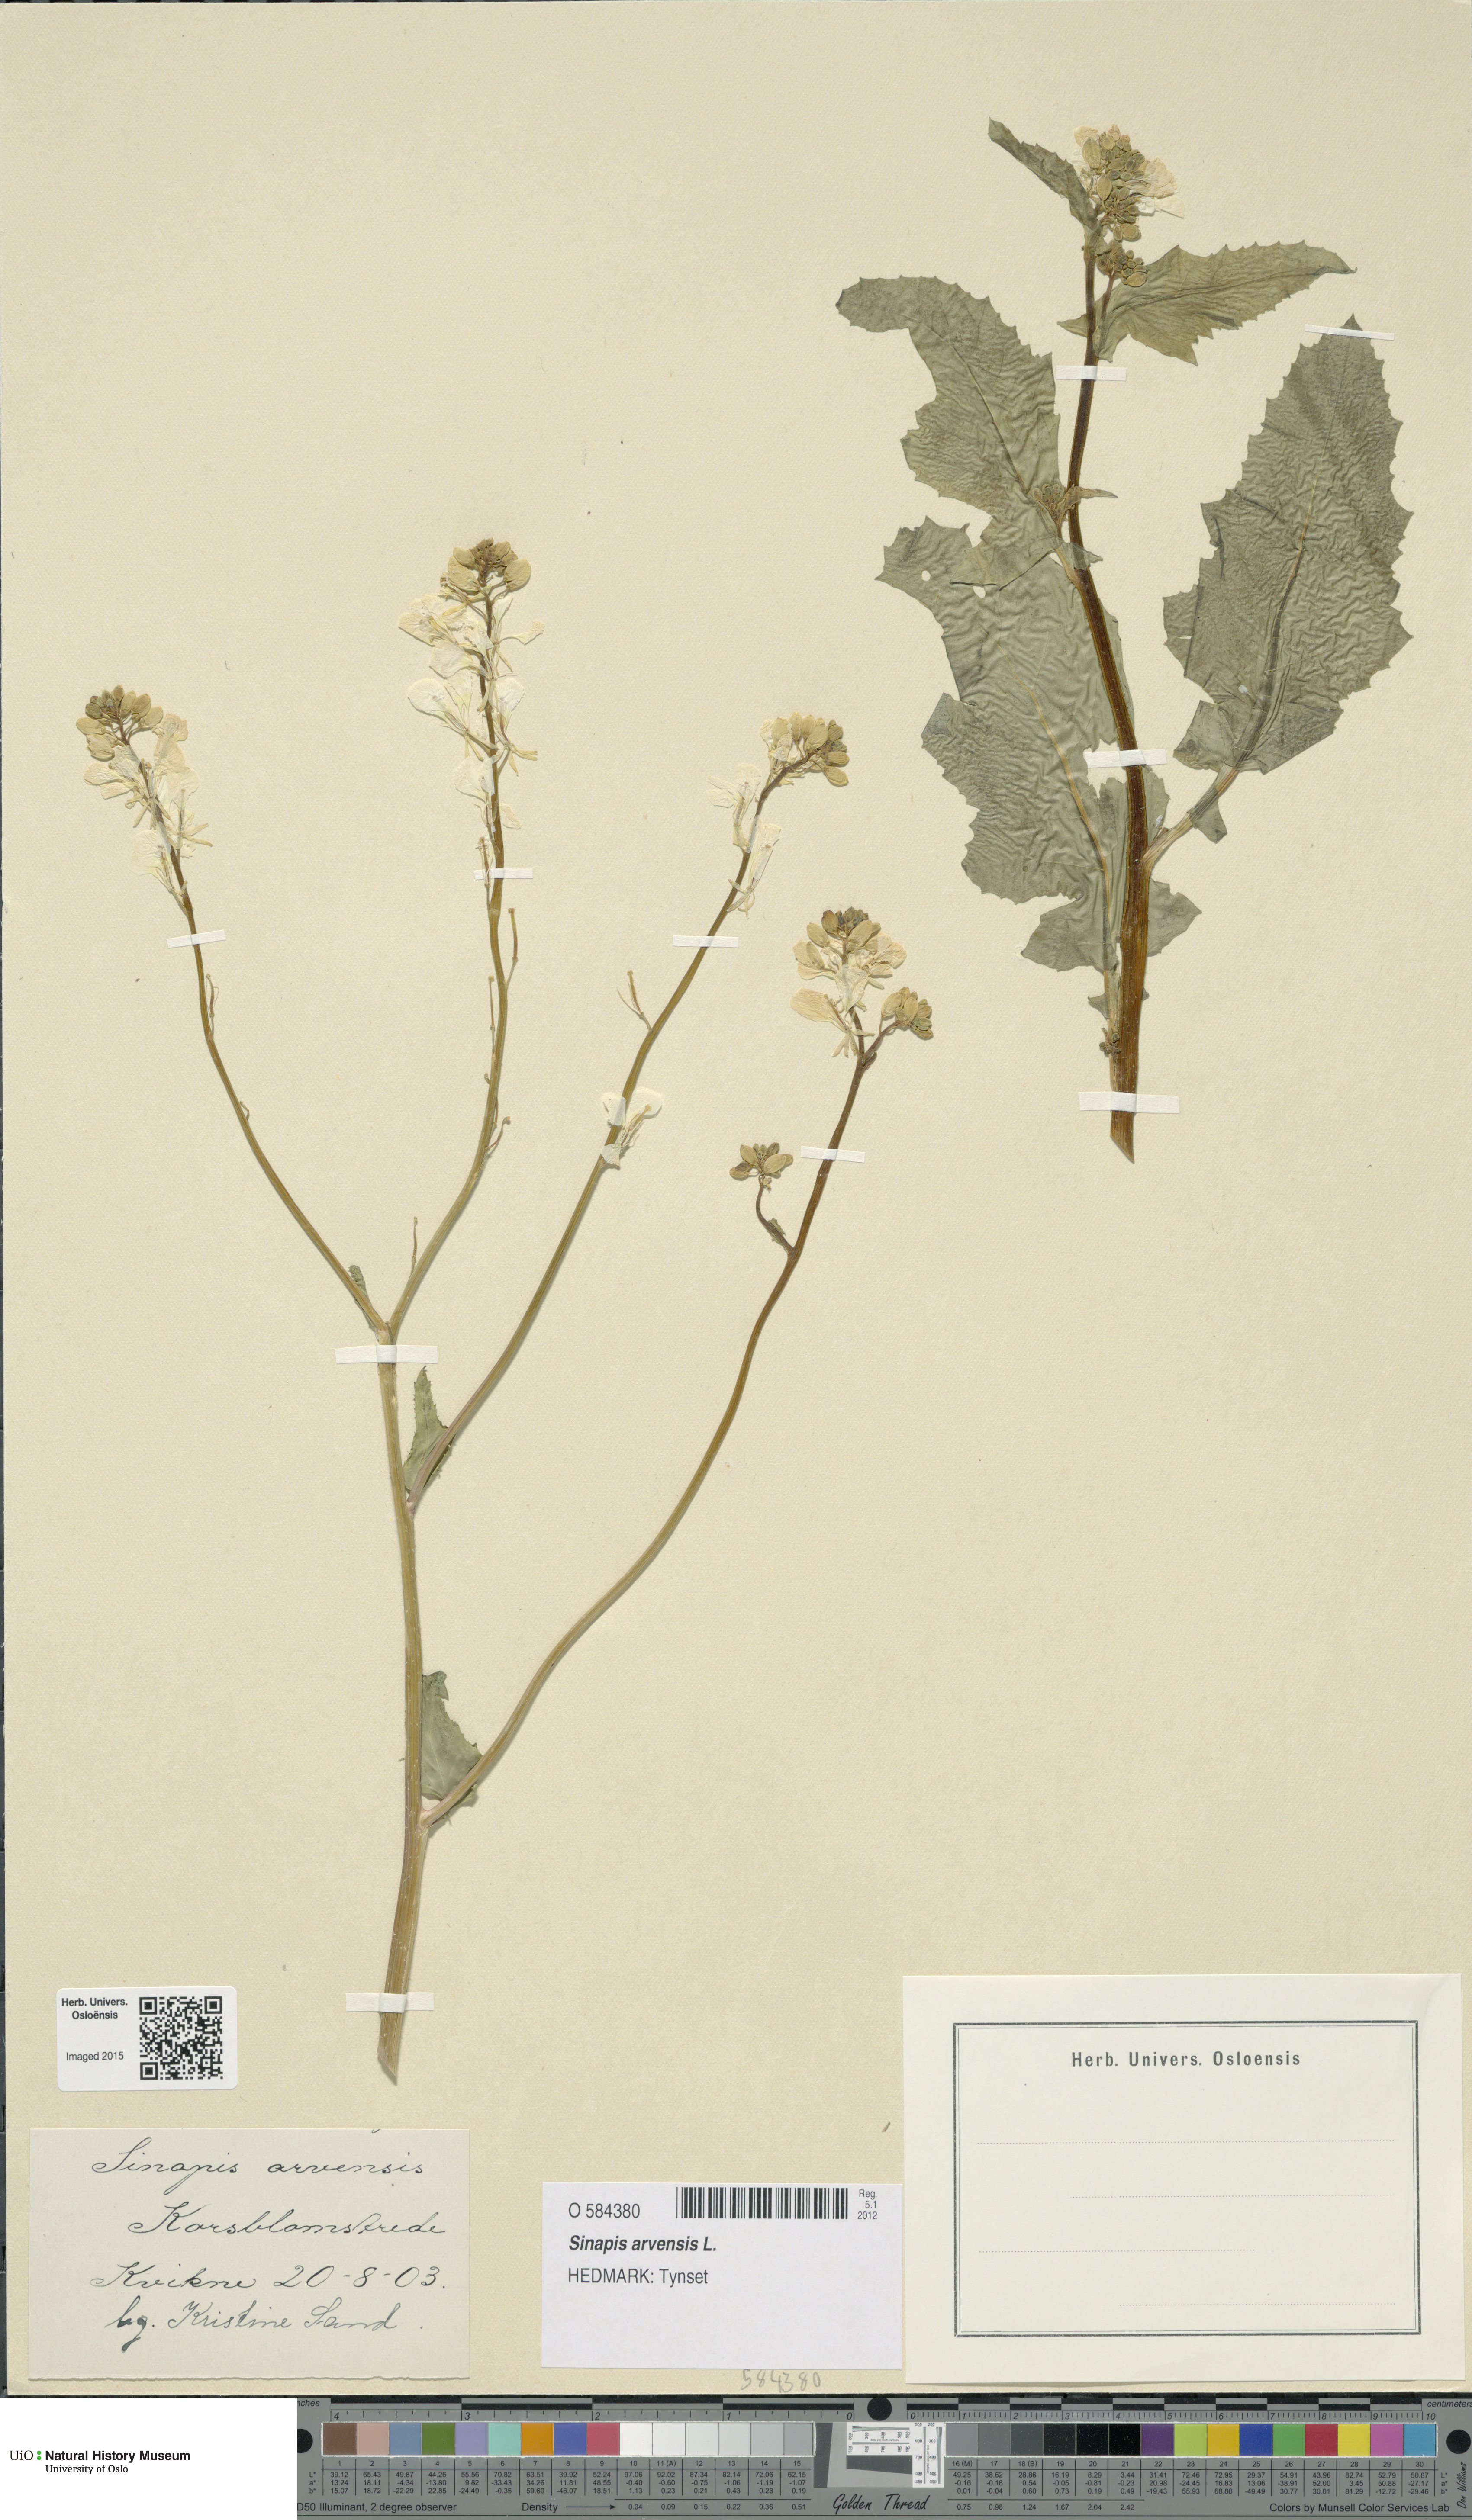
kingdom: Plantae
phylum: Tracheophyta
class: Magnoliopsida
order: Brassicales
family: Brassicaceae
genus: Sinapis
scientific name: Sinapis arvensis
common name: Charlock
